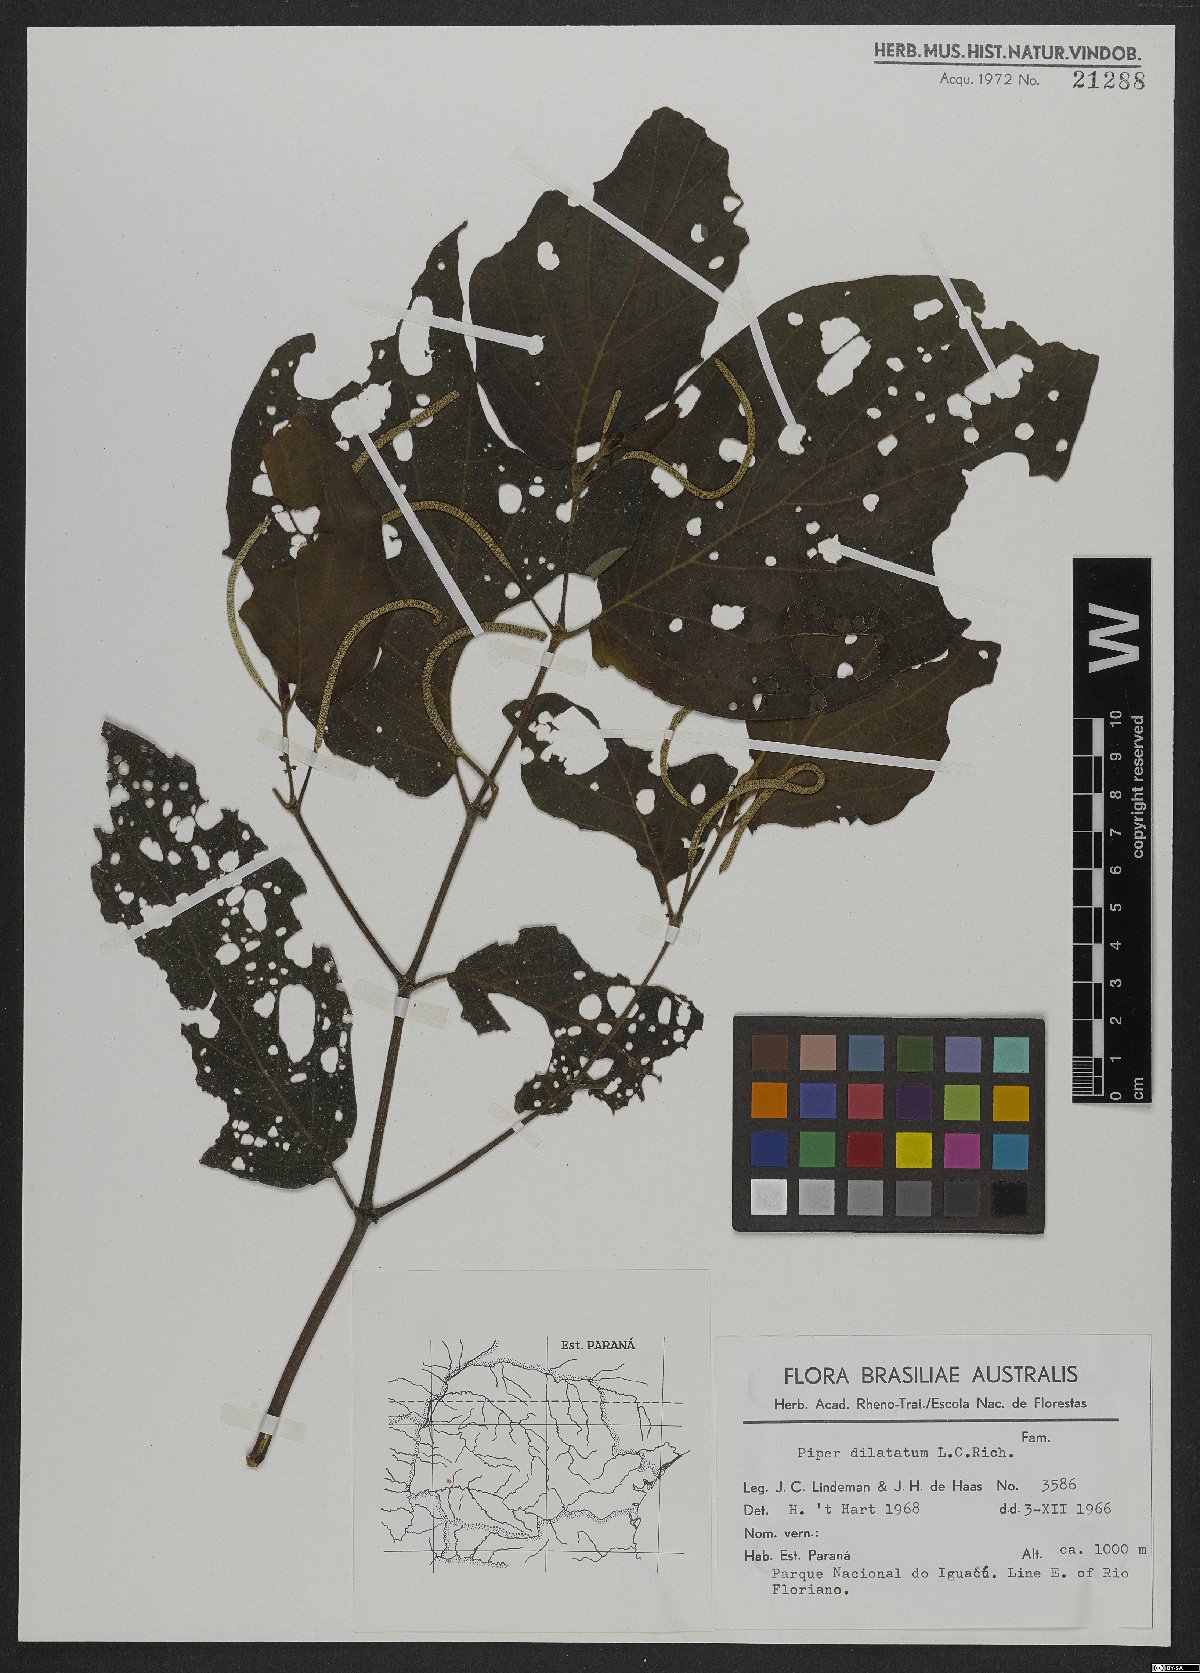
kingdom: Plantae
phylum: Tracheophyta
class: Magnoliopsida
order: Piperales
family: Piperaceae
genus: Piper
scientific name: Piper dilatatum
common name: Higuillo
